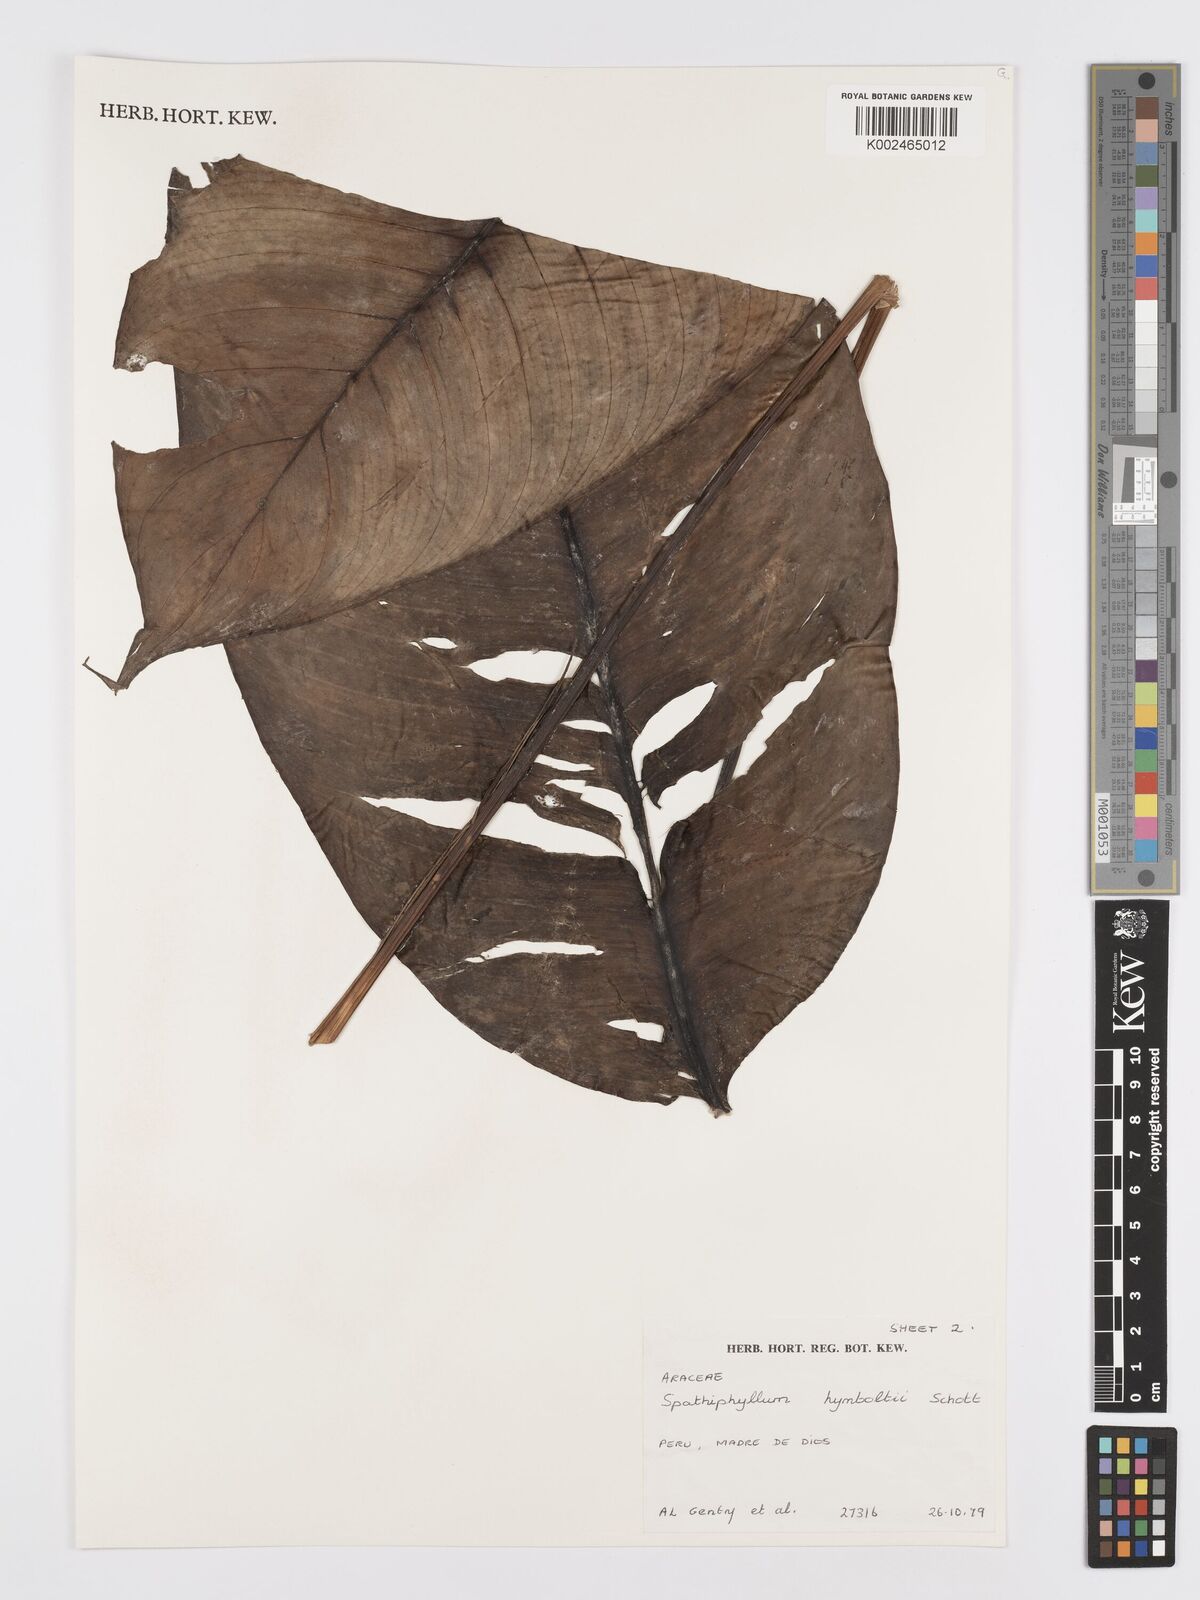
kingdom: Plantae
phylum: Tracheophyta
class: Liliopsida
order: Alismatales
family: Araceae
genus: Spathiphyllum
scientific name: Spathiphyllum humboldtii
